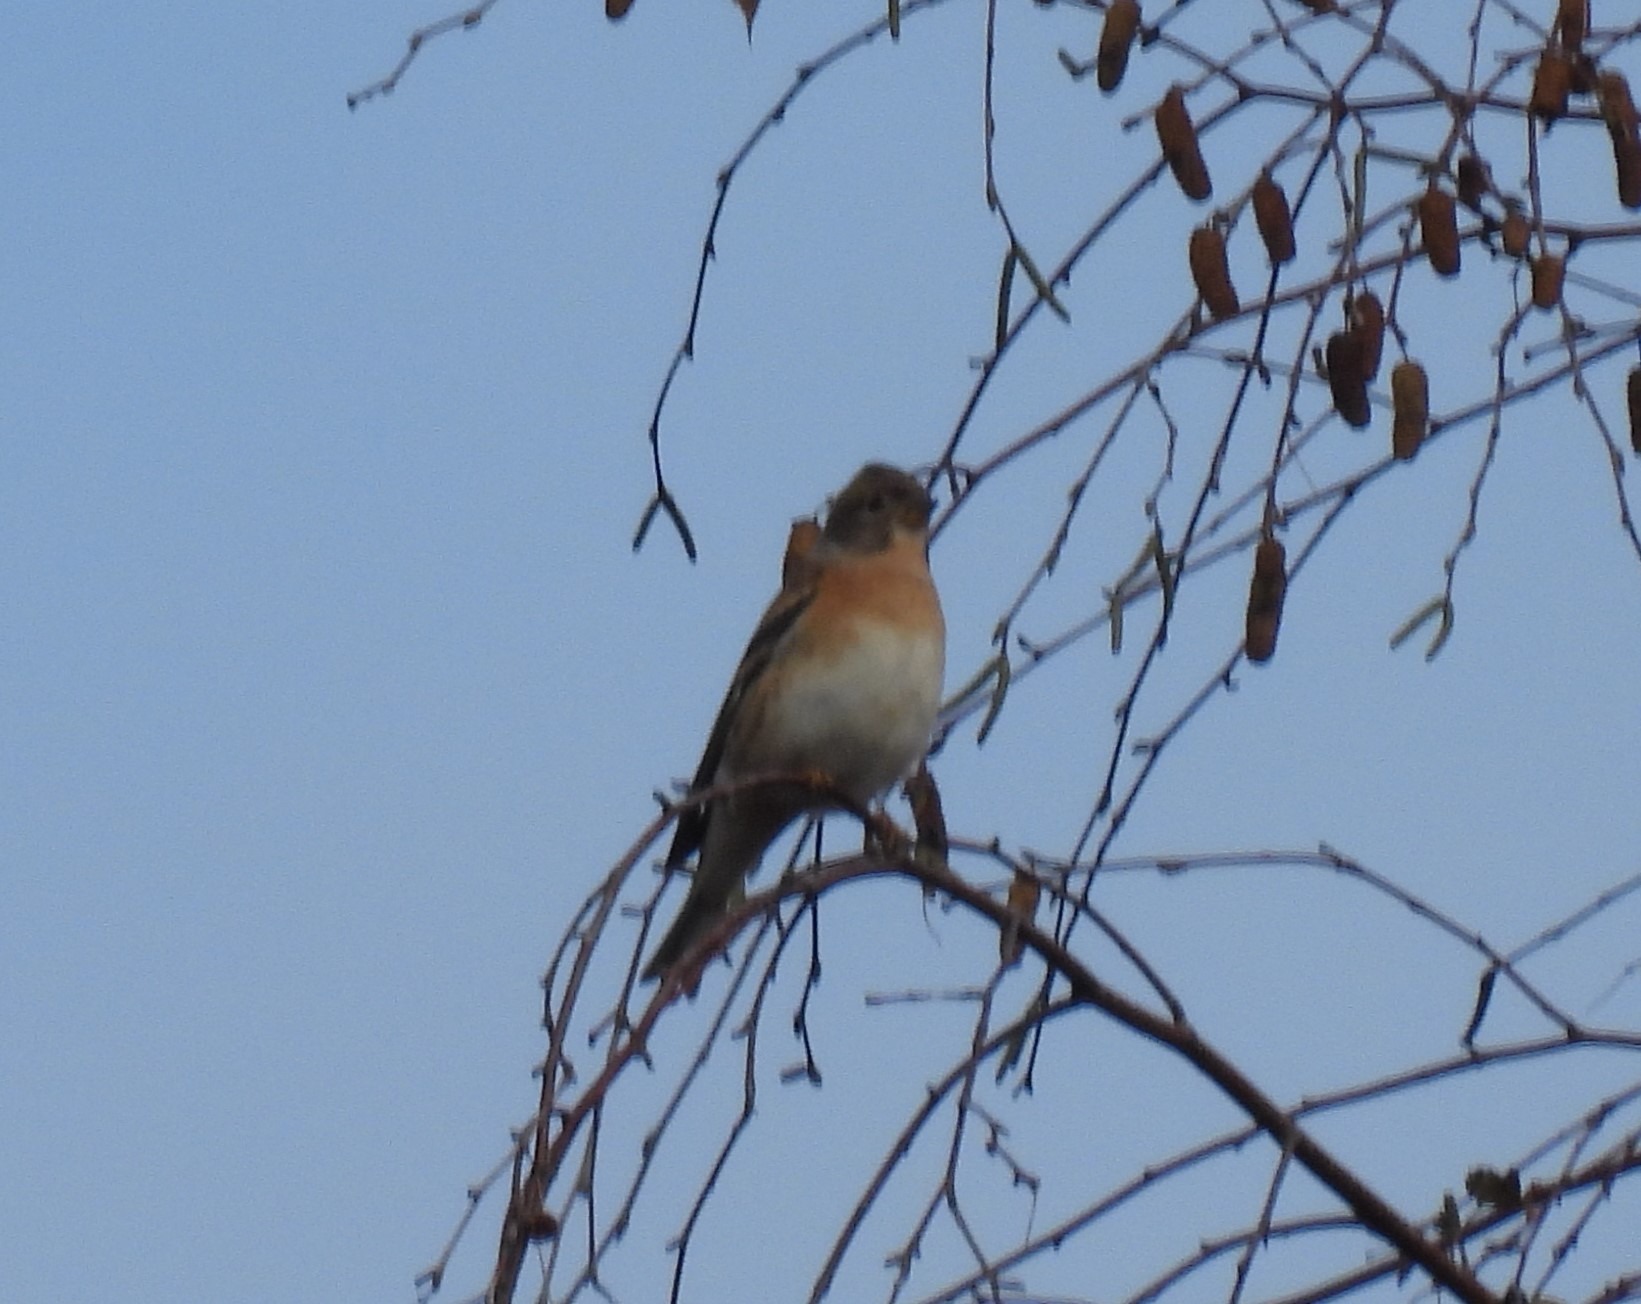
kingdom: Animalia
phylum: Chordata
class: Aves
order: Passeriformes
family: Fringillidae
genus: Fringilla
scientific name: Fringilla montifringilla
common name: Kvækerfinke
